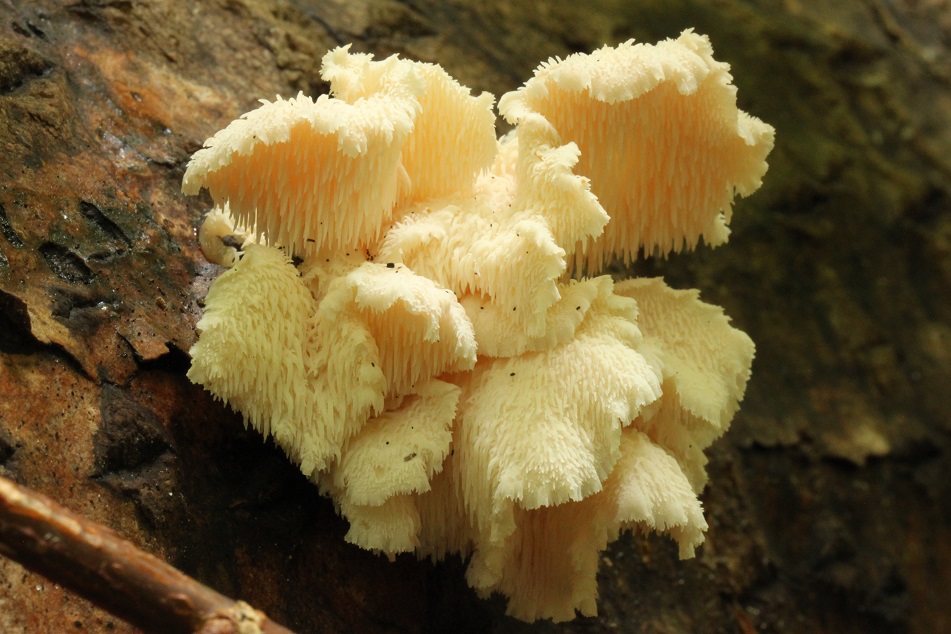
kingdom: Fungi
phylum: Basidiomycota
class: Agaricomycetes
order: Russulales
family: Hericiaceae
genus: Hericium
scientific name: Hericium cirrhatum
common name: børstepigsvamp
